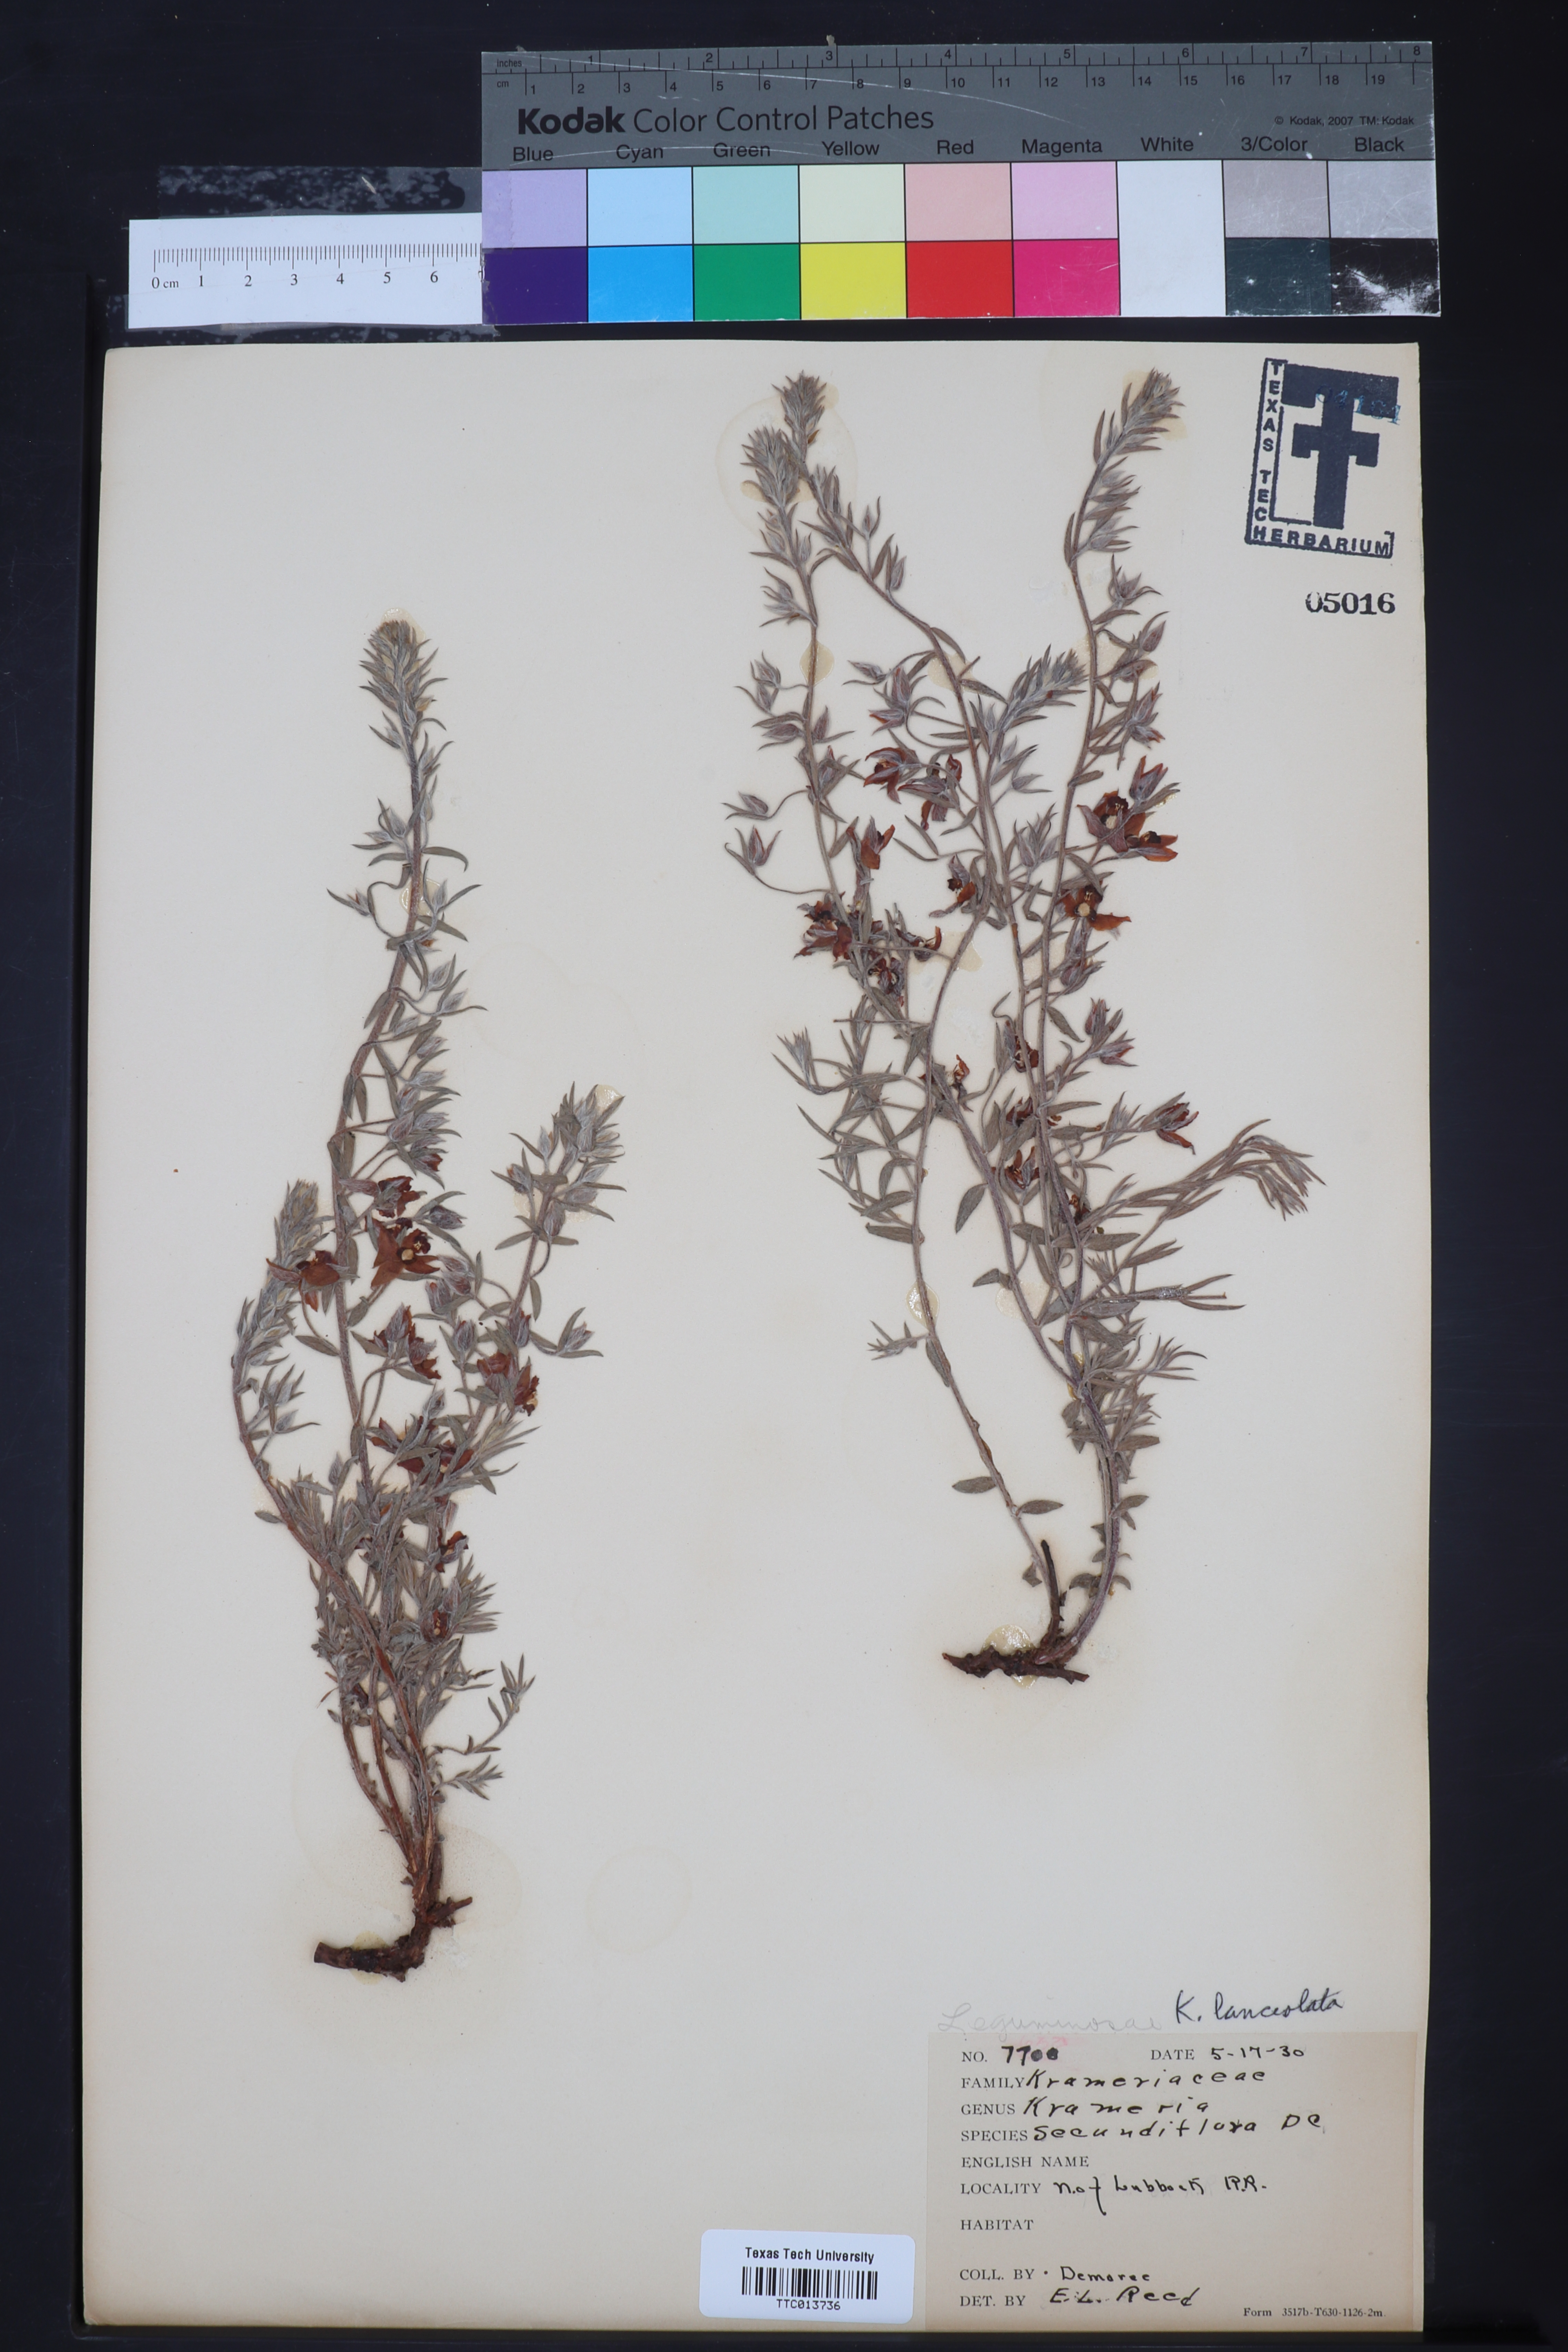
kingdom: Plantae
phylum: Tracheophyta
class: Magnoliopsida
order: Zygophyllales
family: Krameriaceae
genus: Krameria
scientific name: Krameria lanceolata
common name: Ratany
